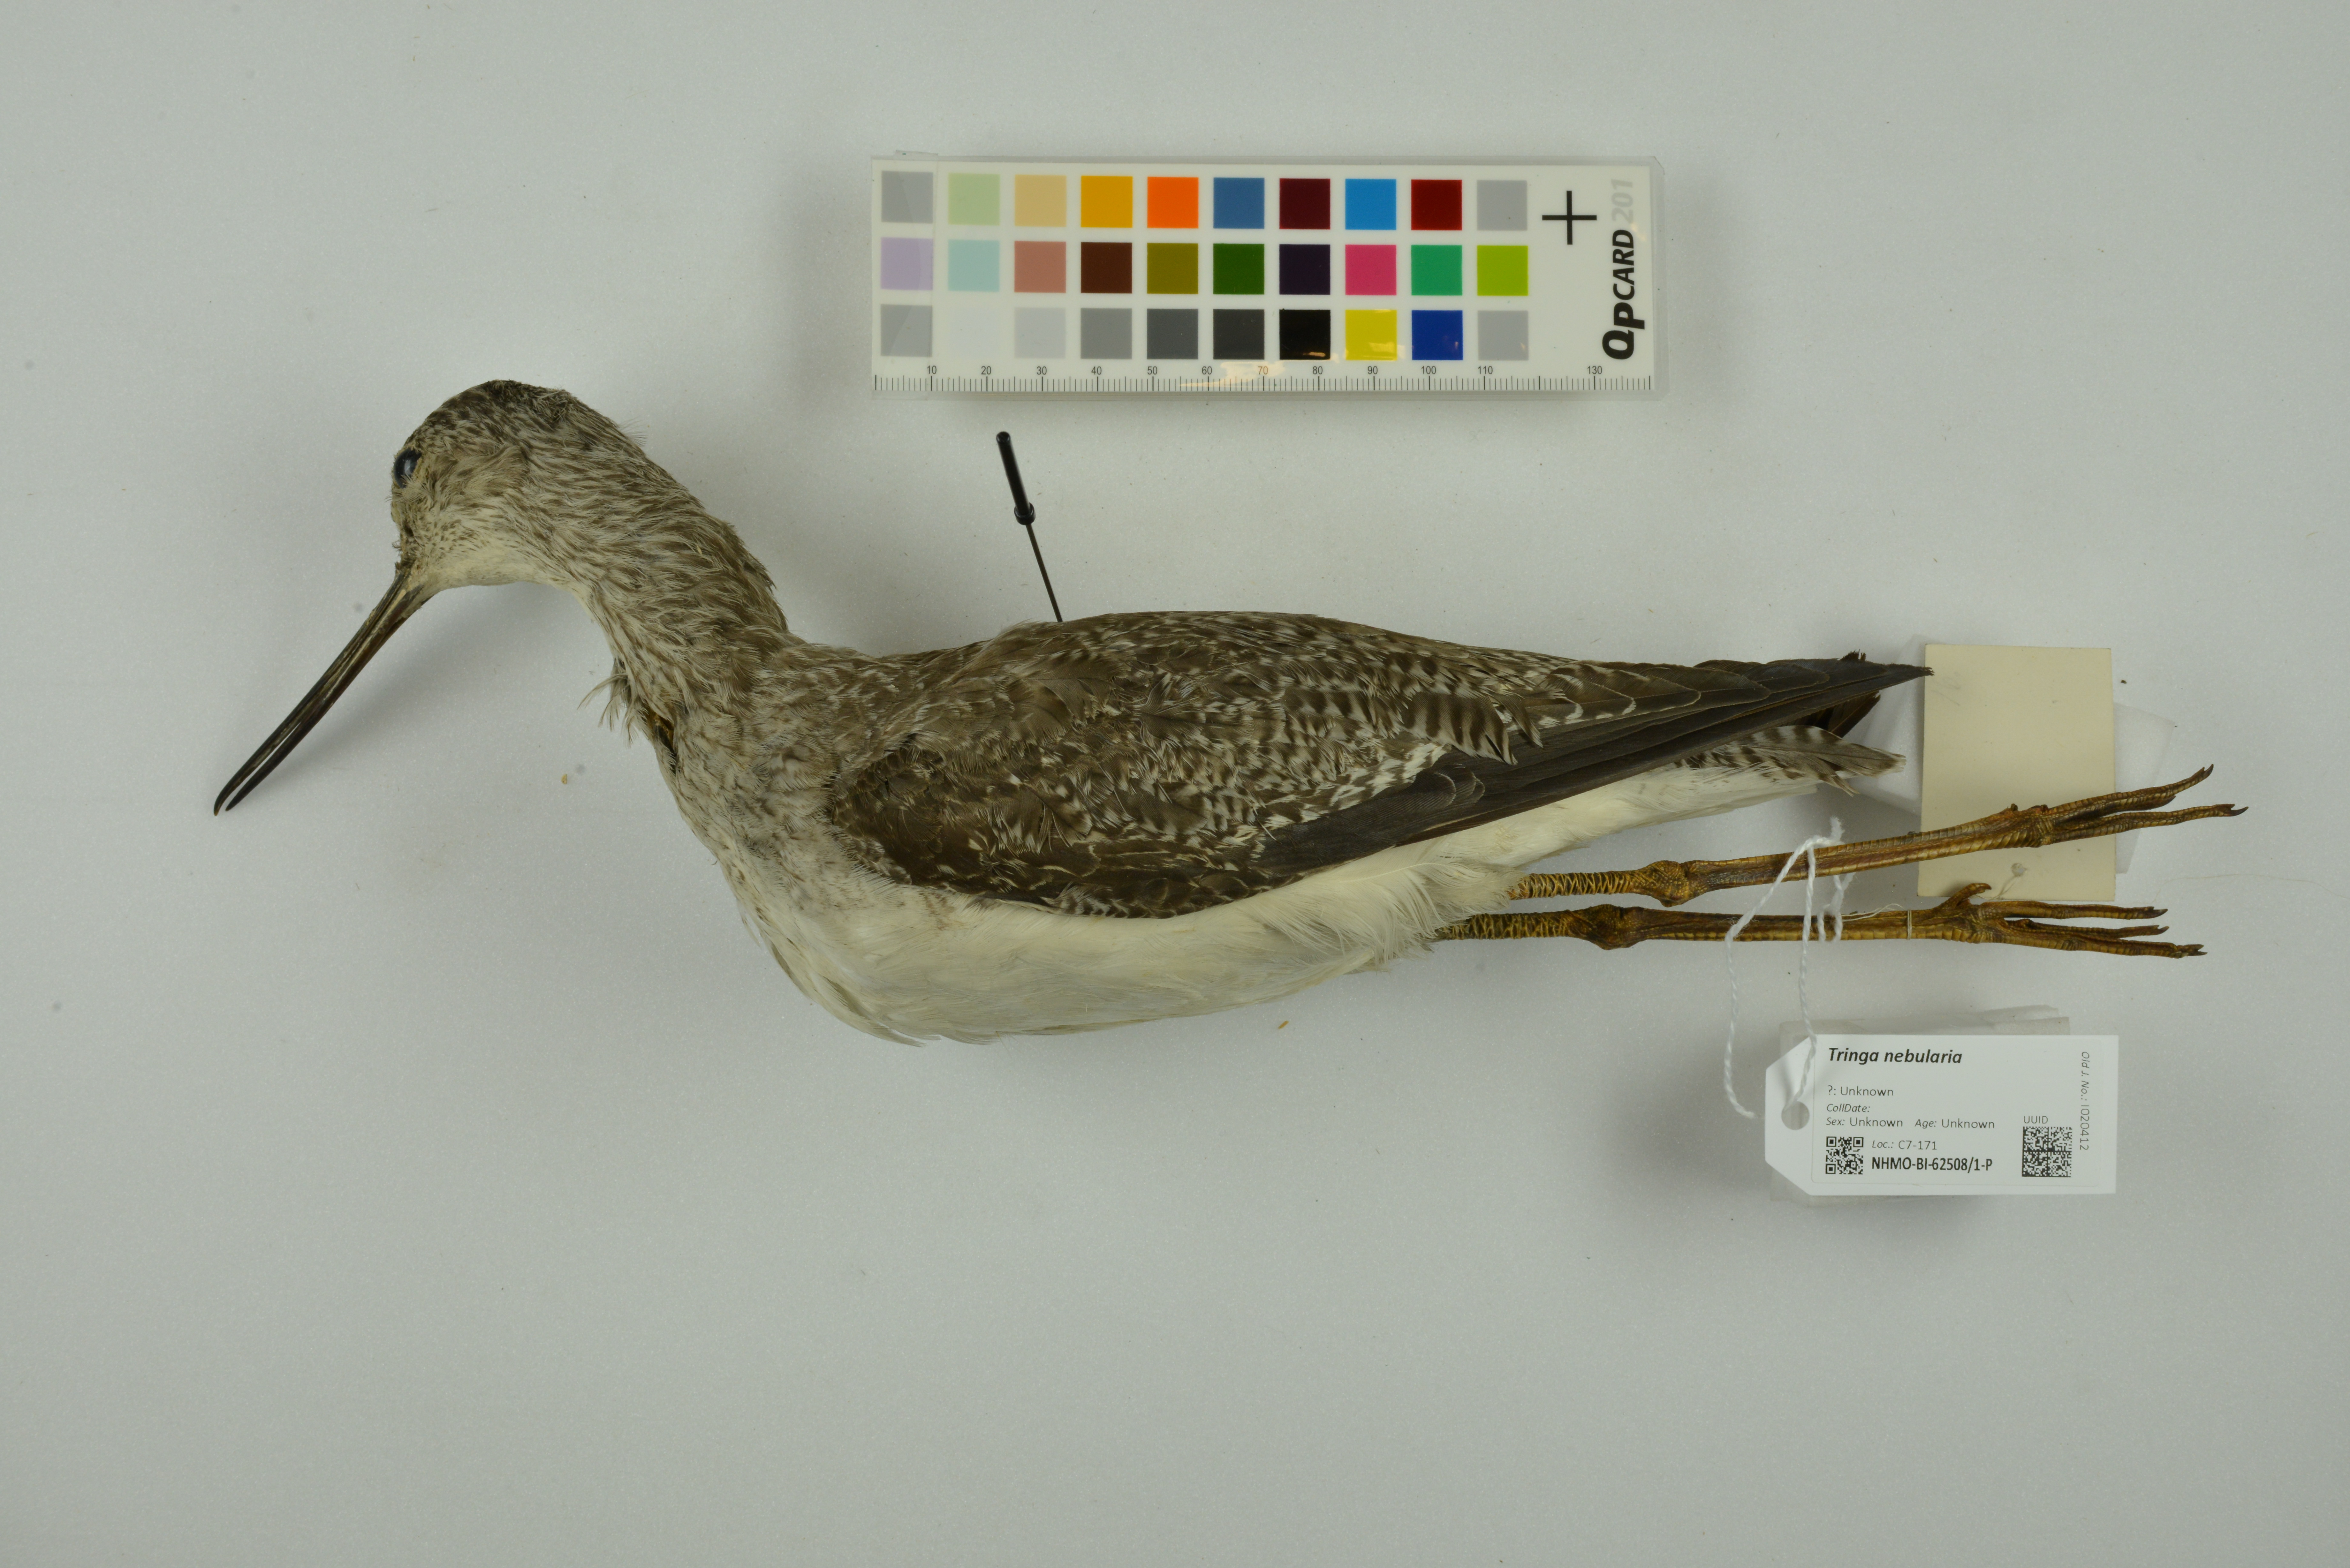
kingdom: Animalia
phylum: Chordata
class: Aves
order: Charadriiformes
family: Scolopacidae
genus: Tringa
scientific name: Tringa nebularia
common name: Common greenshank
